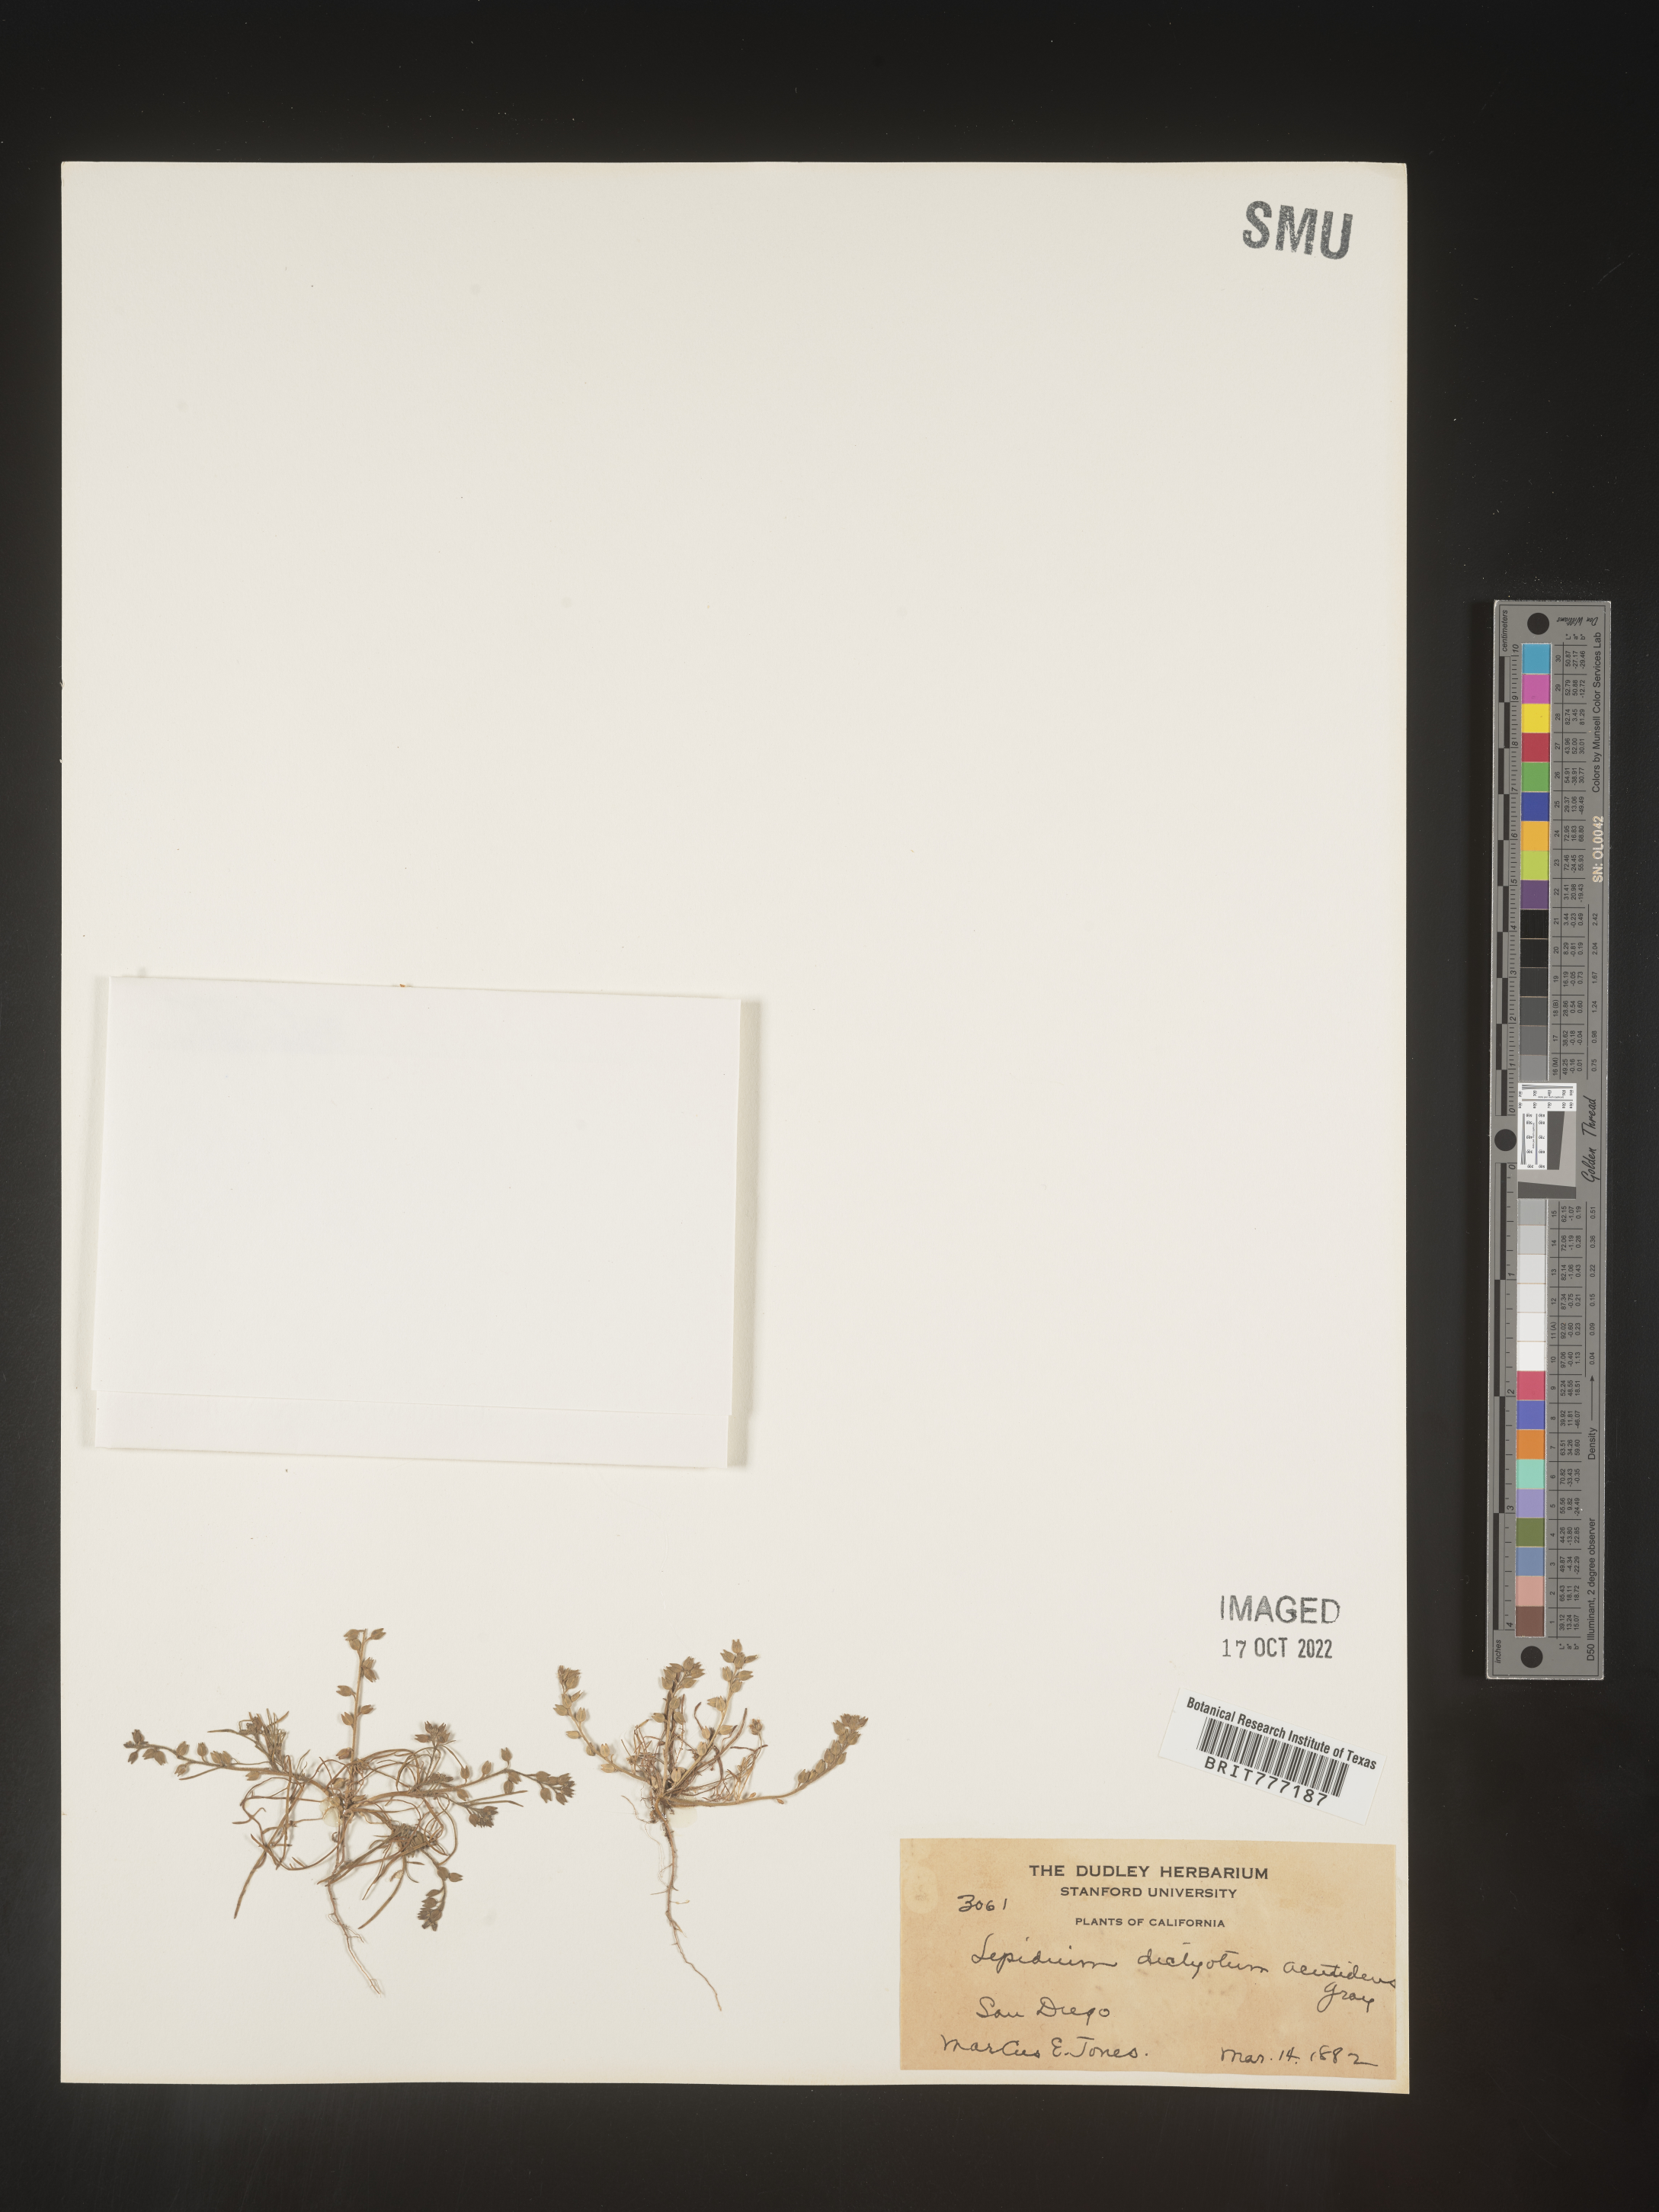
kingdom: Plantae
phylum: Tracheophyta
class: Magnoliopsida
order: Brassicales
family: Brassicaceae
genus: Lepidium
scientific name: Lepidium
